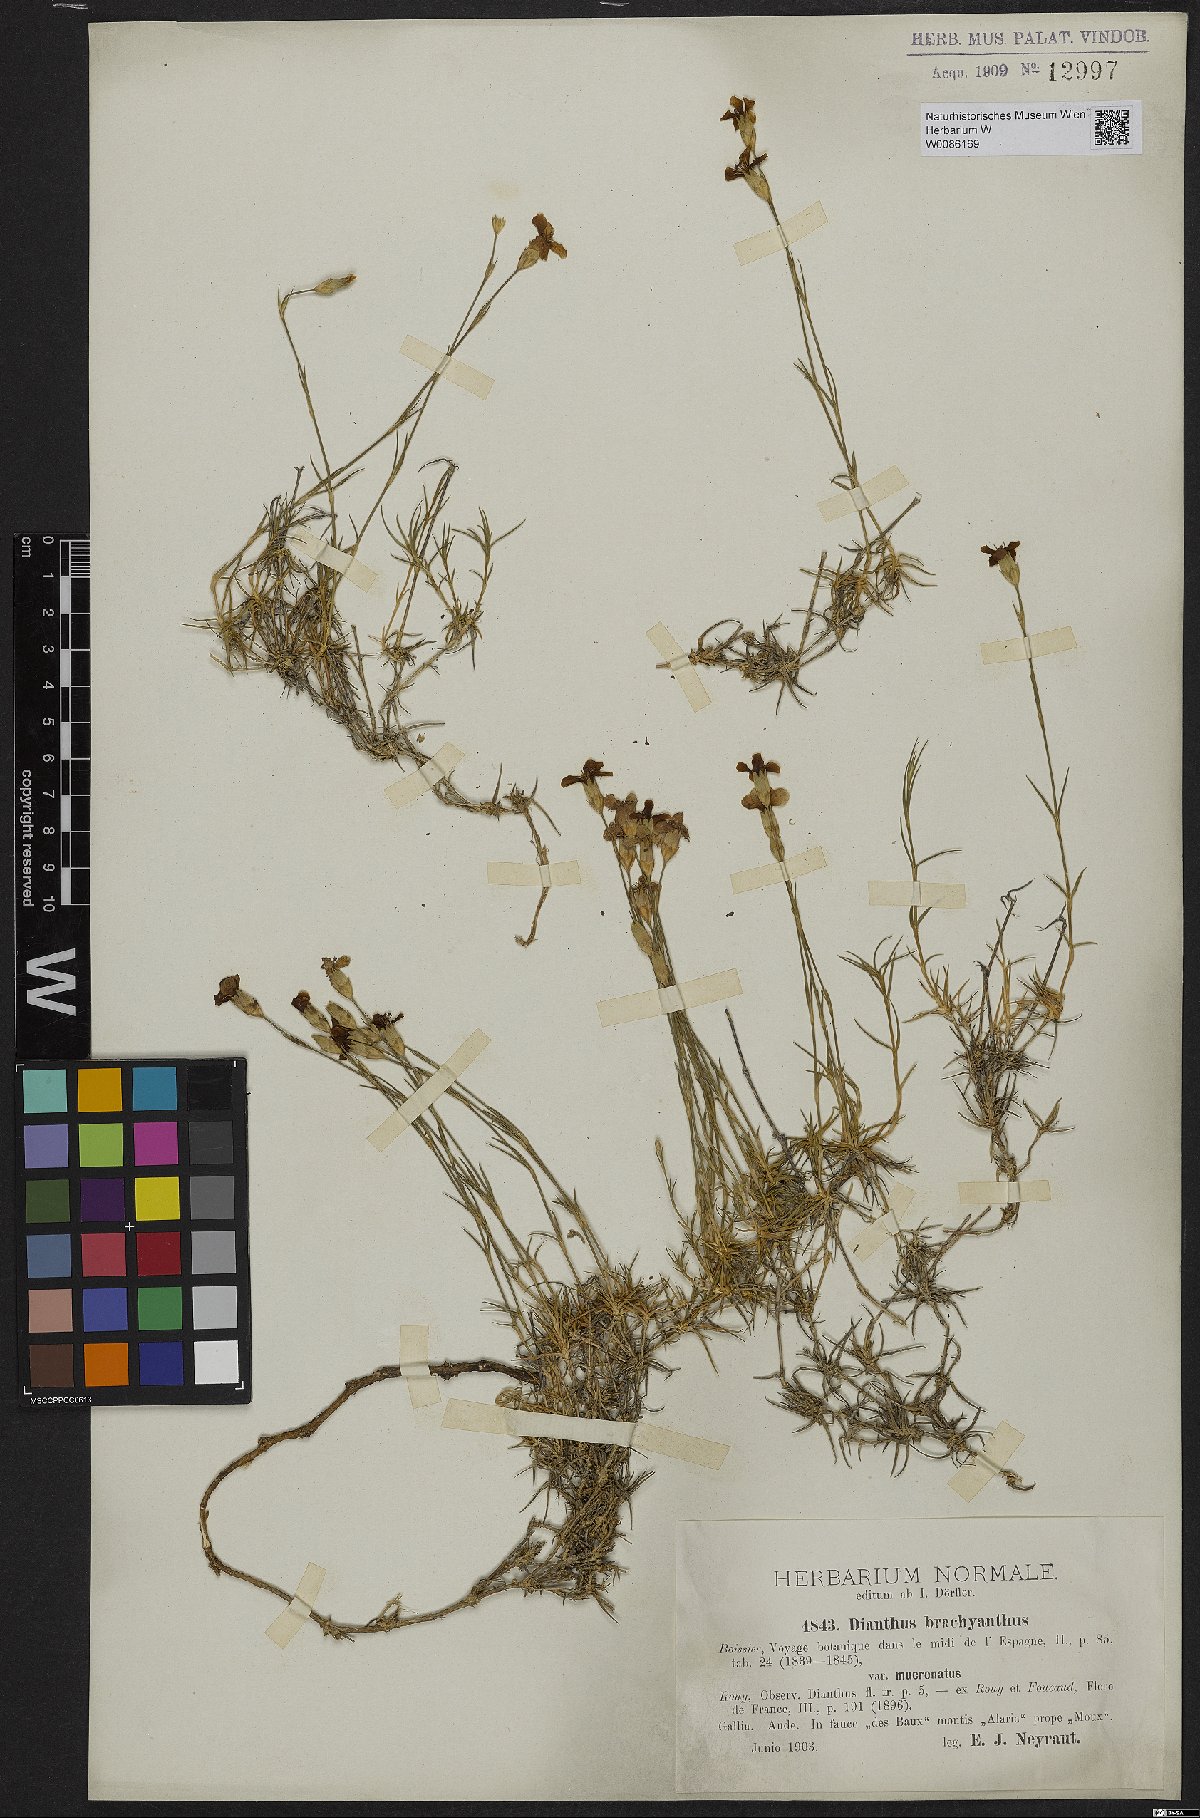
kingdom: Plantae
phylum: Tracheophyta
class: Magnoliopsida
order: Caryophyllales
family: Caryophyllaceae
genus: Dianthus
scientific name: Dianthus subacaulis
